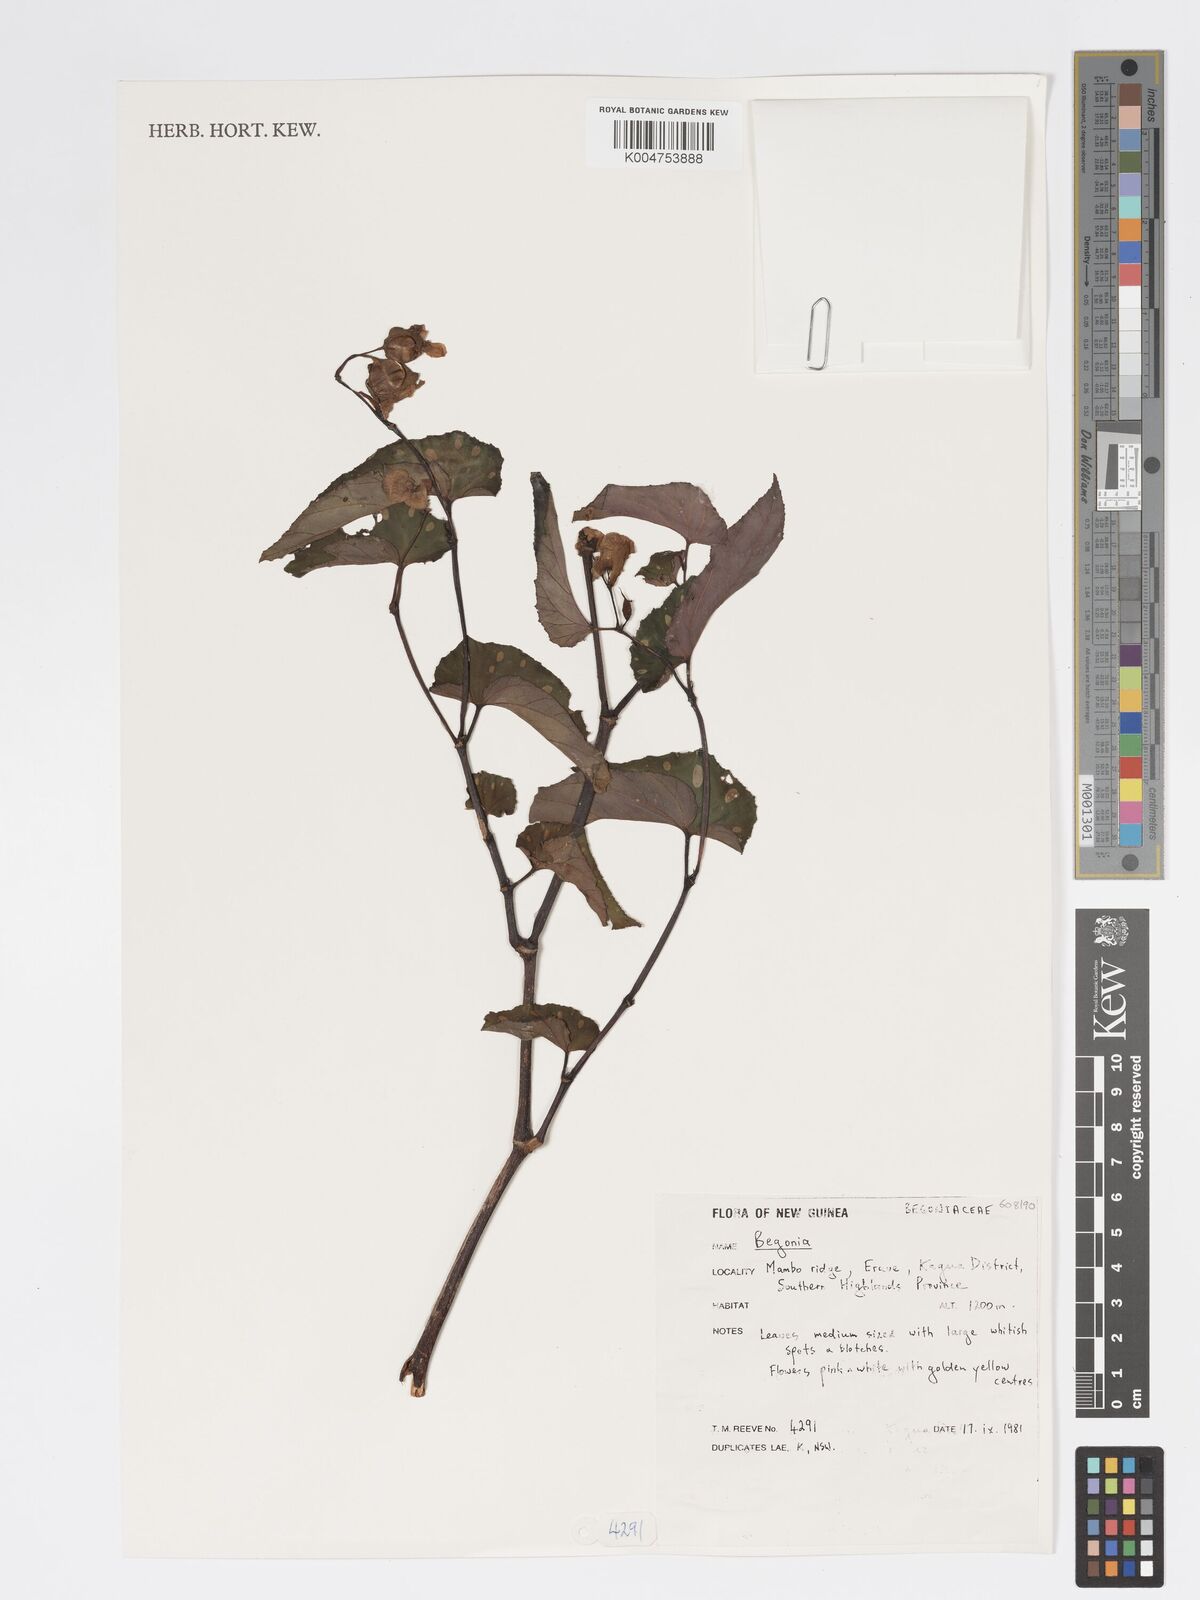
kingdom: Plantae
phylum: Tracheophyta
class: Magnoliopsida
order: Cucurbitales
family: Begoniaceae
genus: Begonia
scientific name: Begonia
